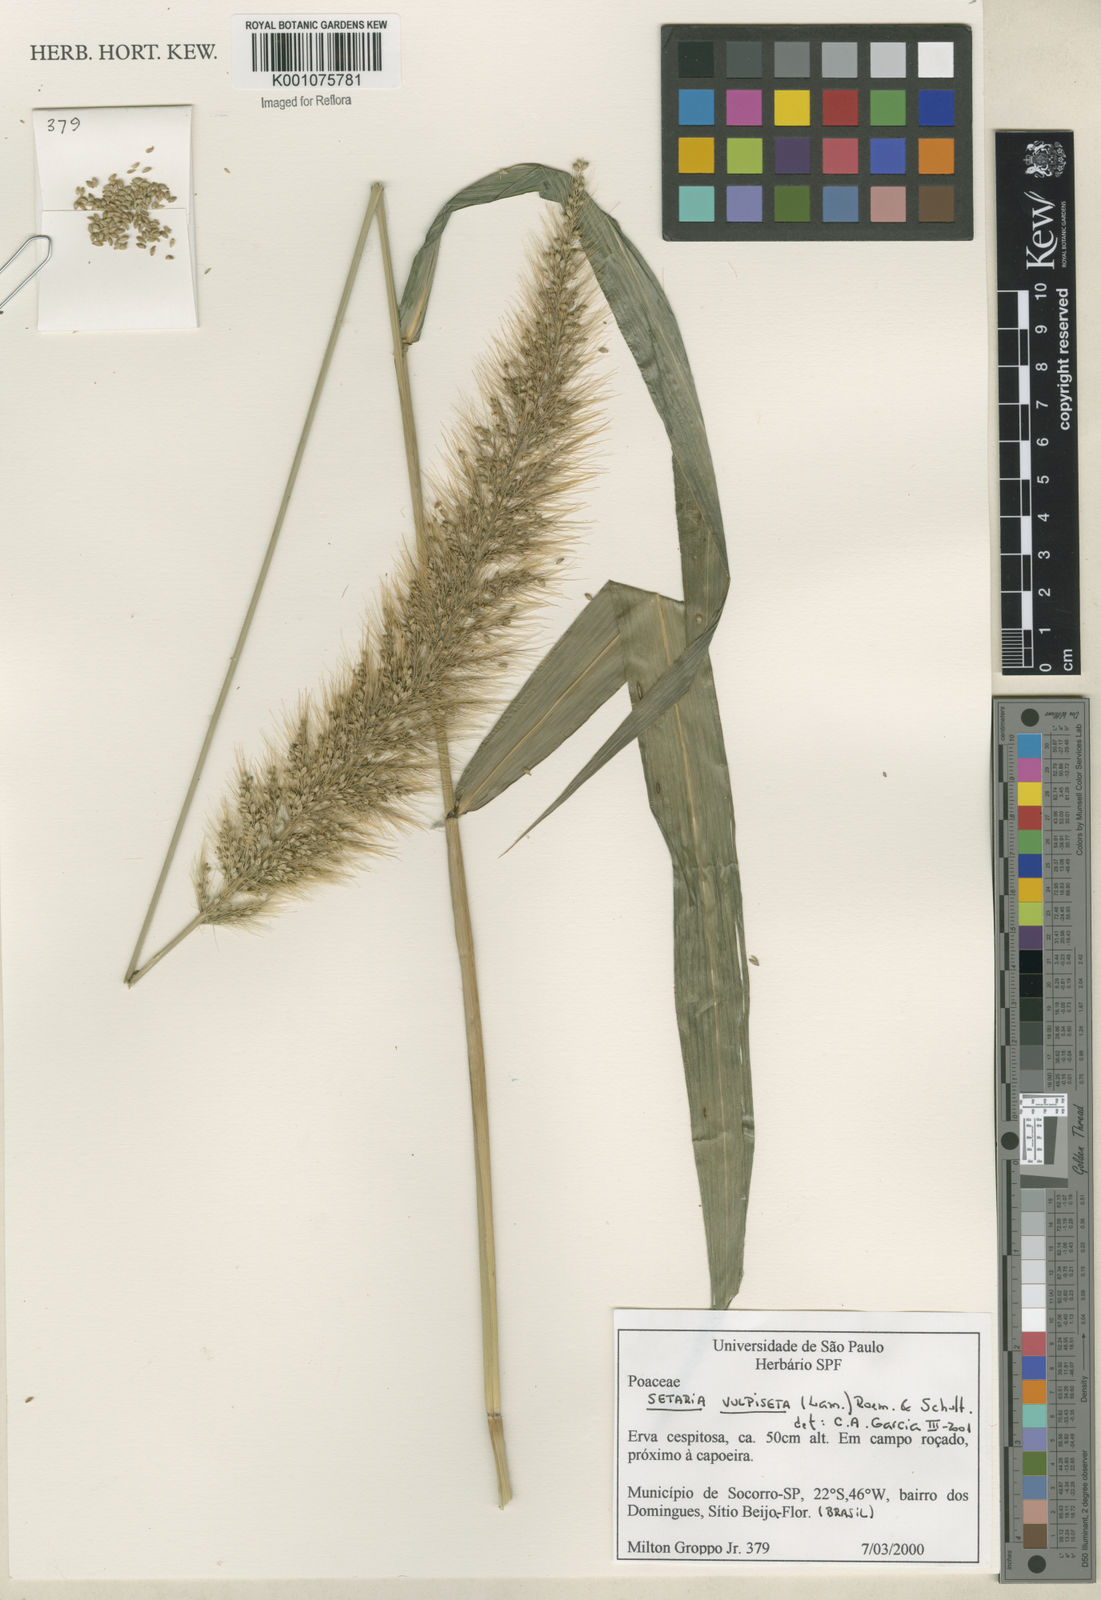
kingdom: Plantae
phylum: Tracheophyta
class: Liliopsida
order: Poales
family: Poaceae
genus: Setaria
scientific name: Setaria vulpiseta
